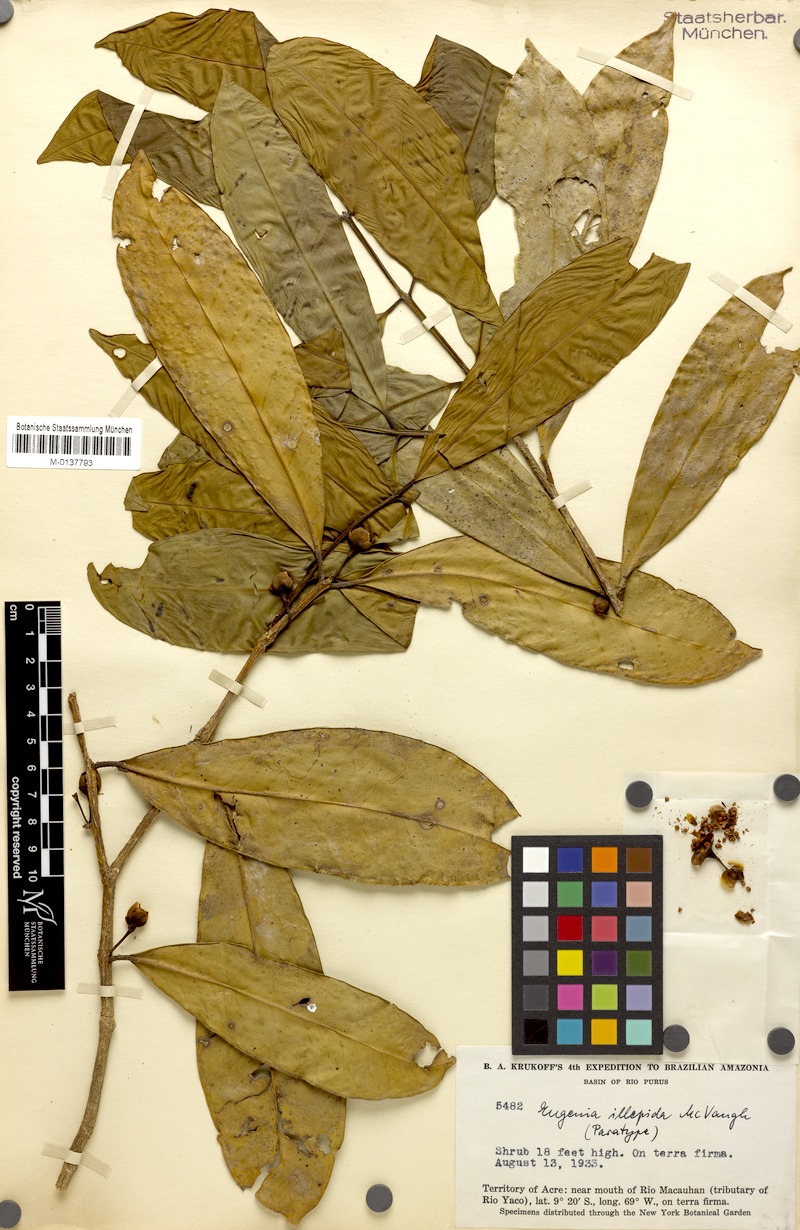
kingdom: Plantae
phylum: Tracheophyta
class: Magnoliopsida
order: Myrtales
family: Myrtaceae
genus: Eugenia
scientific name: Eugenia illepida
